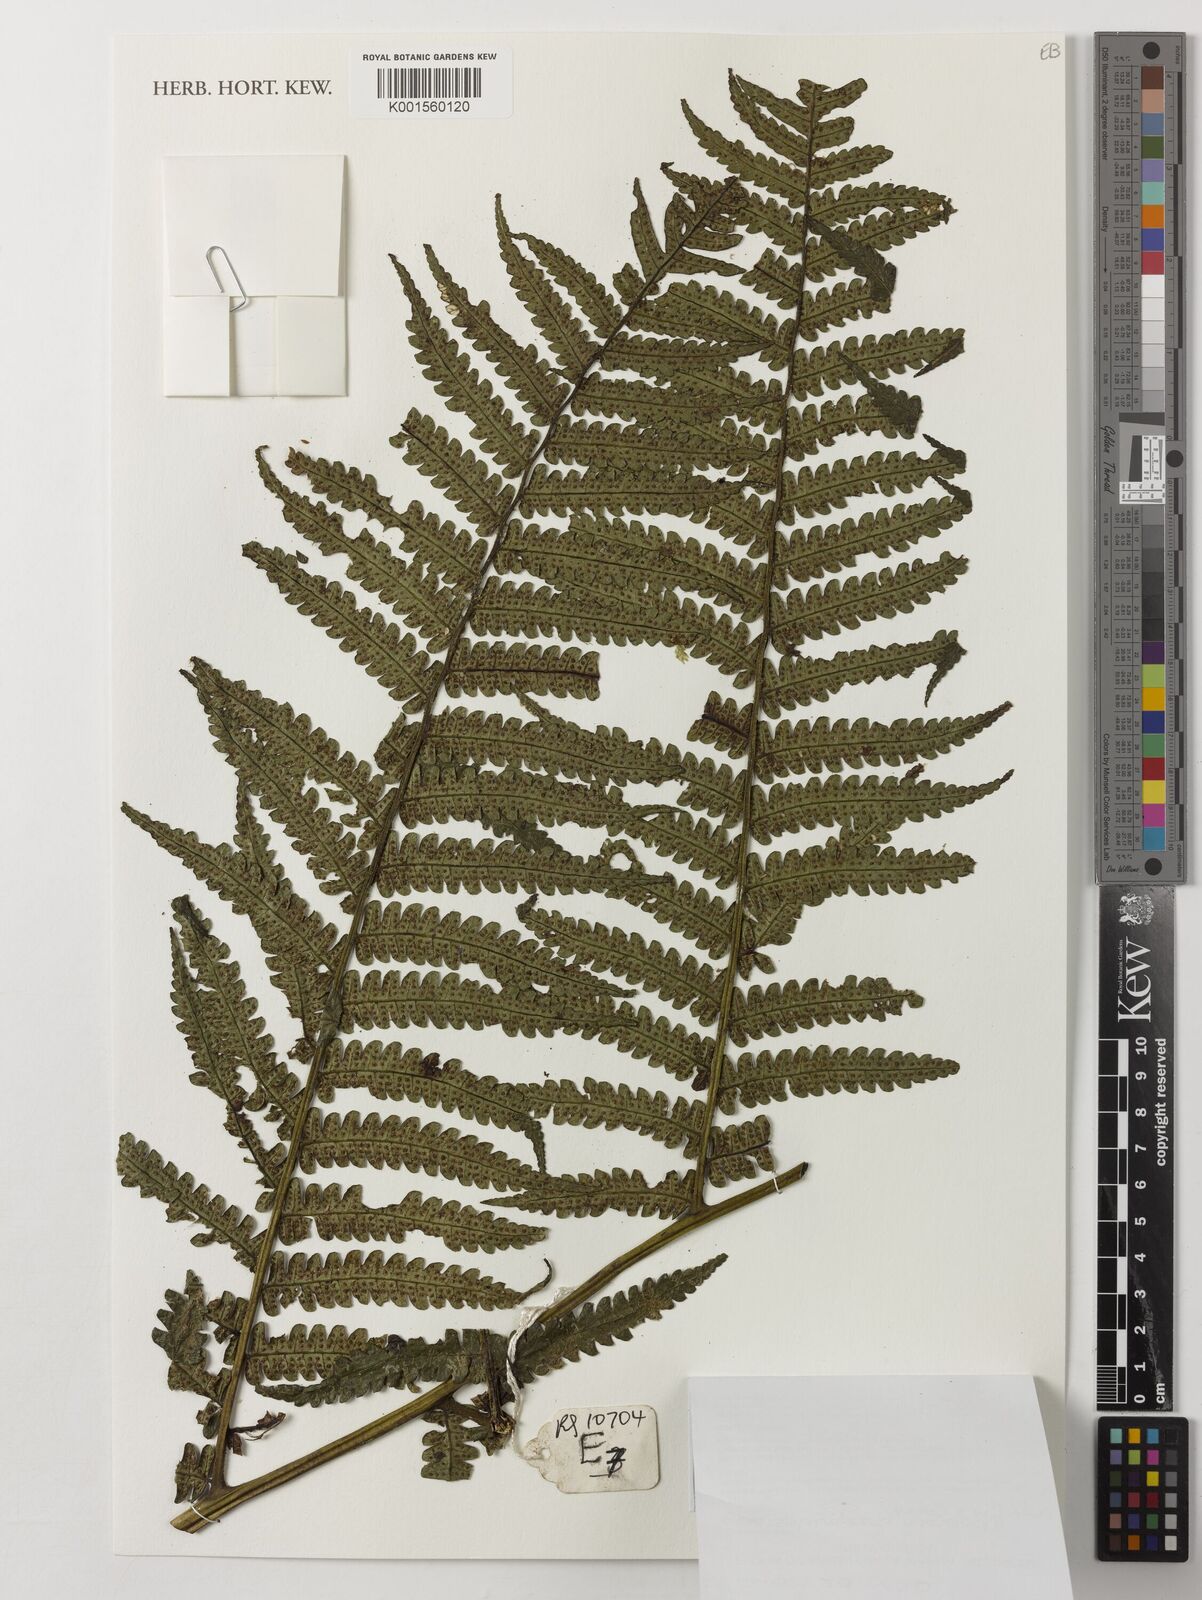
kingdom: Plantae
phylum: Tracheophyta
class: Polypodiopsida
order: Cyatheales
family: Cyatheaceae
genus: Sphaeropteris
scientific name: Sphaeropteris rosenstockii
